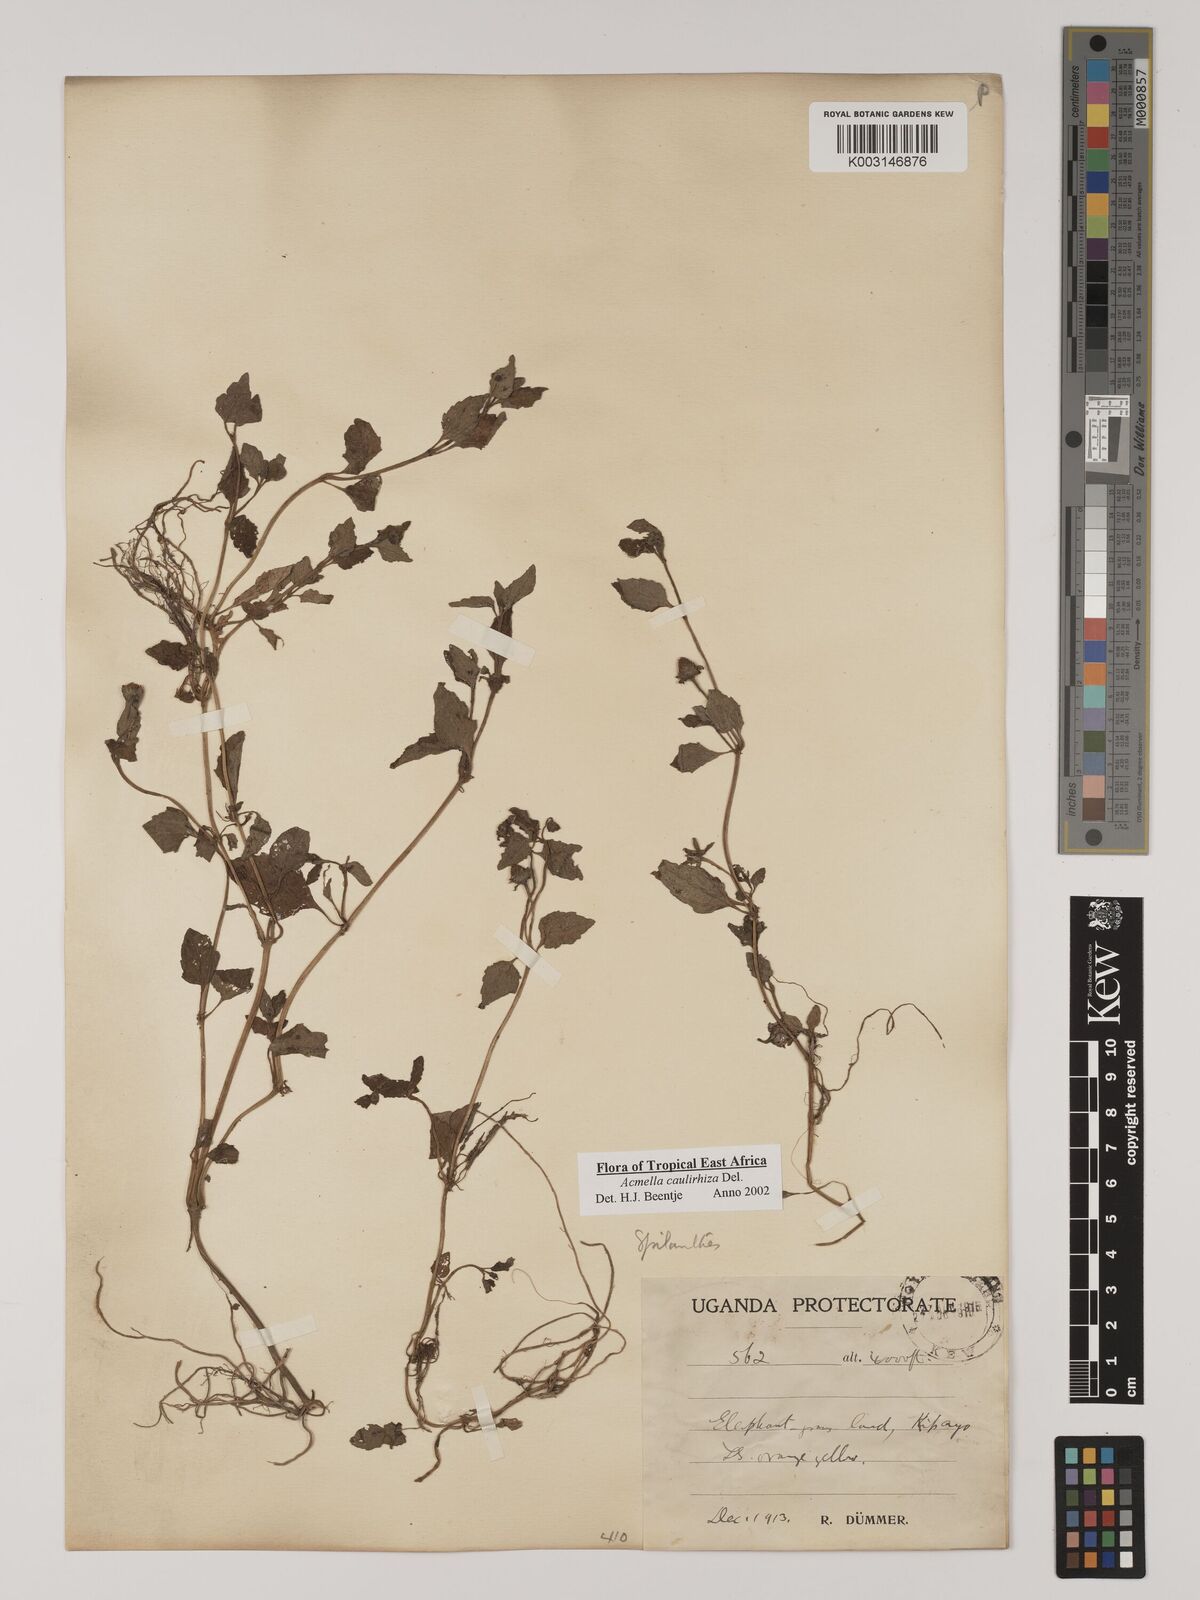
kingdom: Plantae
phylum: Tracheophyta
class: Magnoliopsida
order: Asterales
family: Asteraceae
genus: Acmella
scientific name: Acmella caulirhiza
